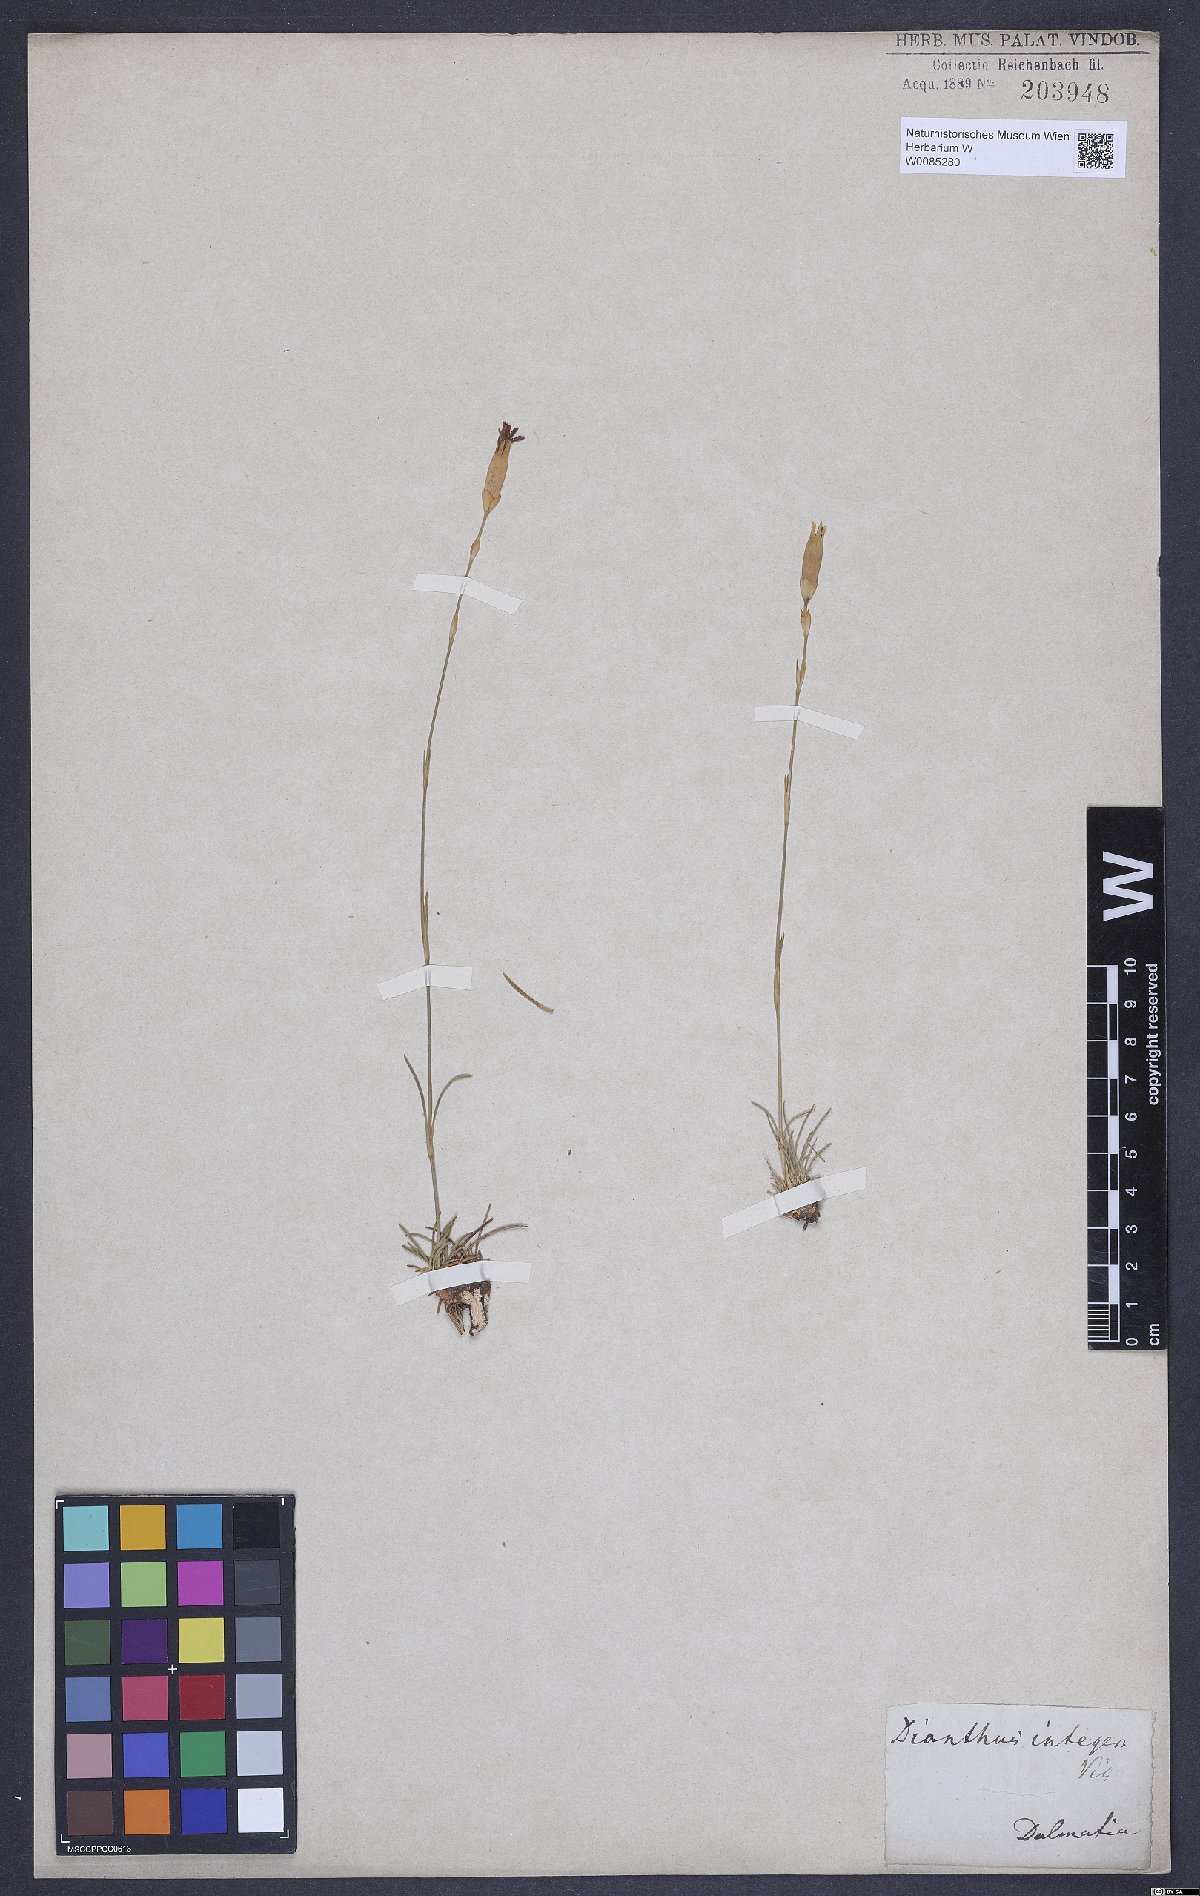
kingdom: Plantae
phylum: Tracheophyta
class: Magnoliopsida
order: Caryophyllales
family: Caryophyllaceae
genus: Dianthus
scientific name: Dianthus petraeus
